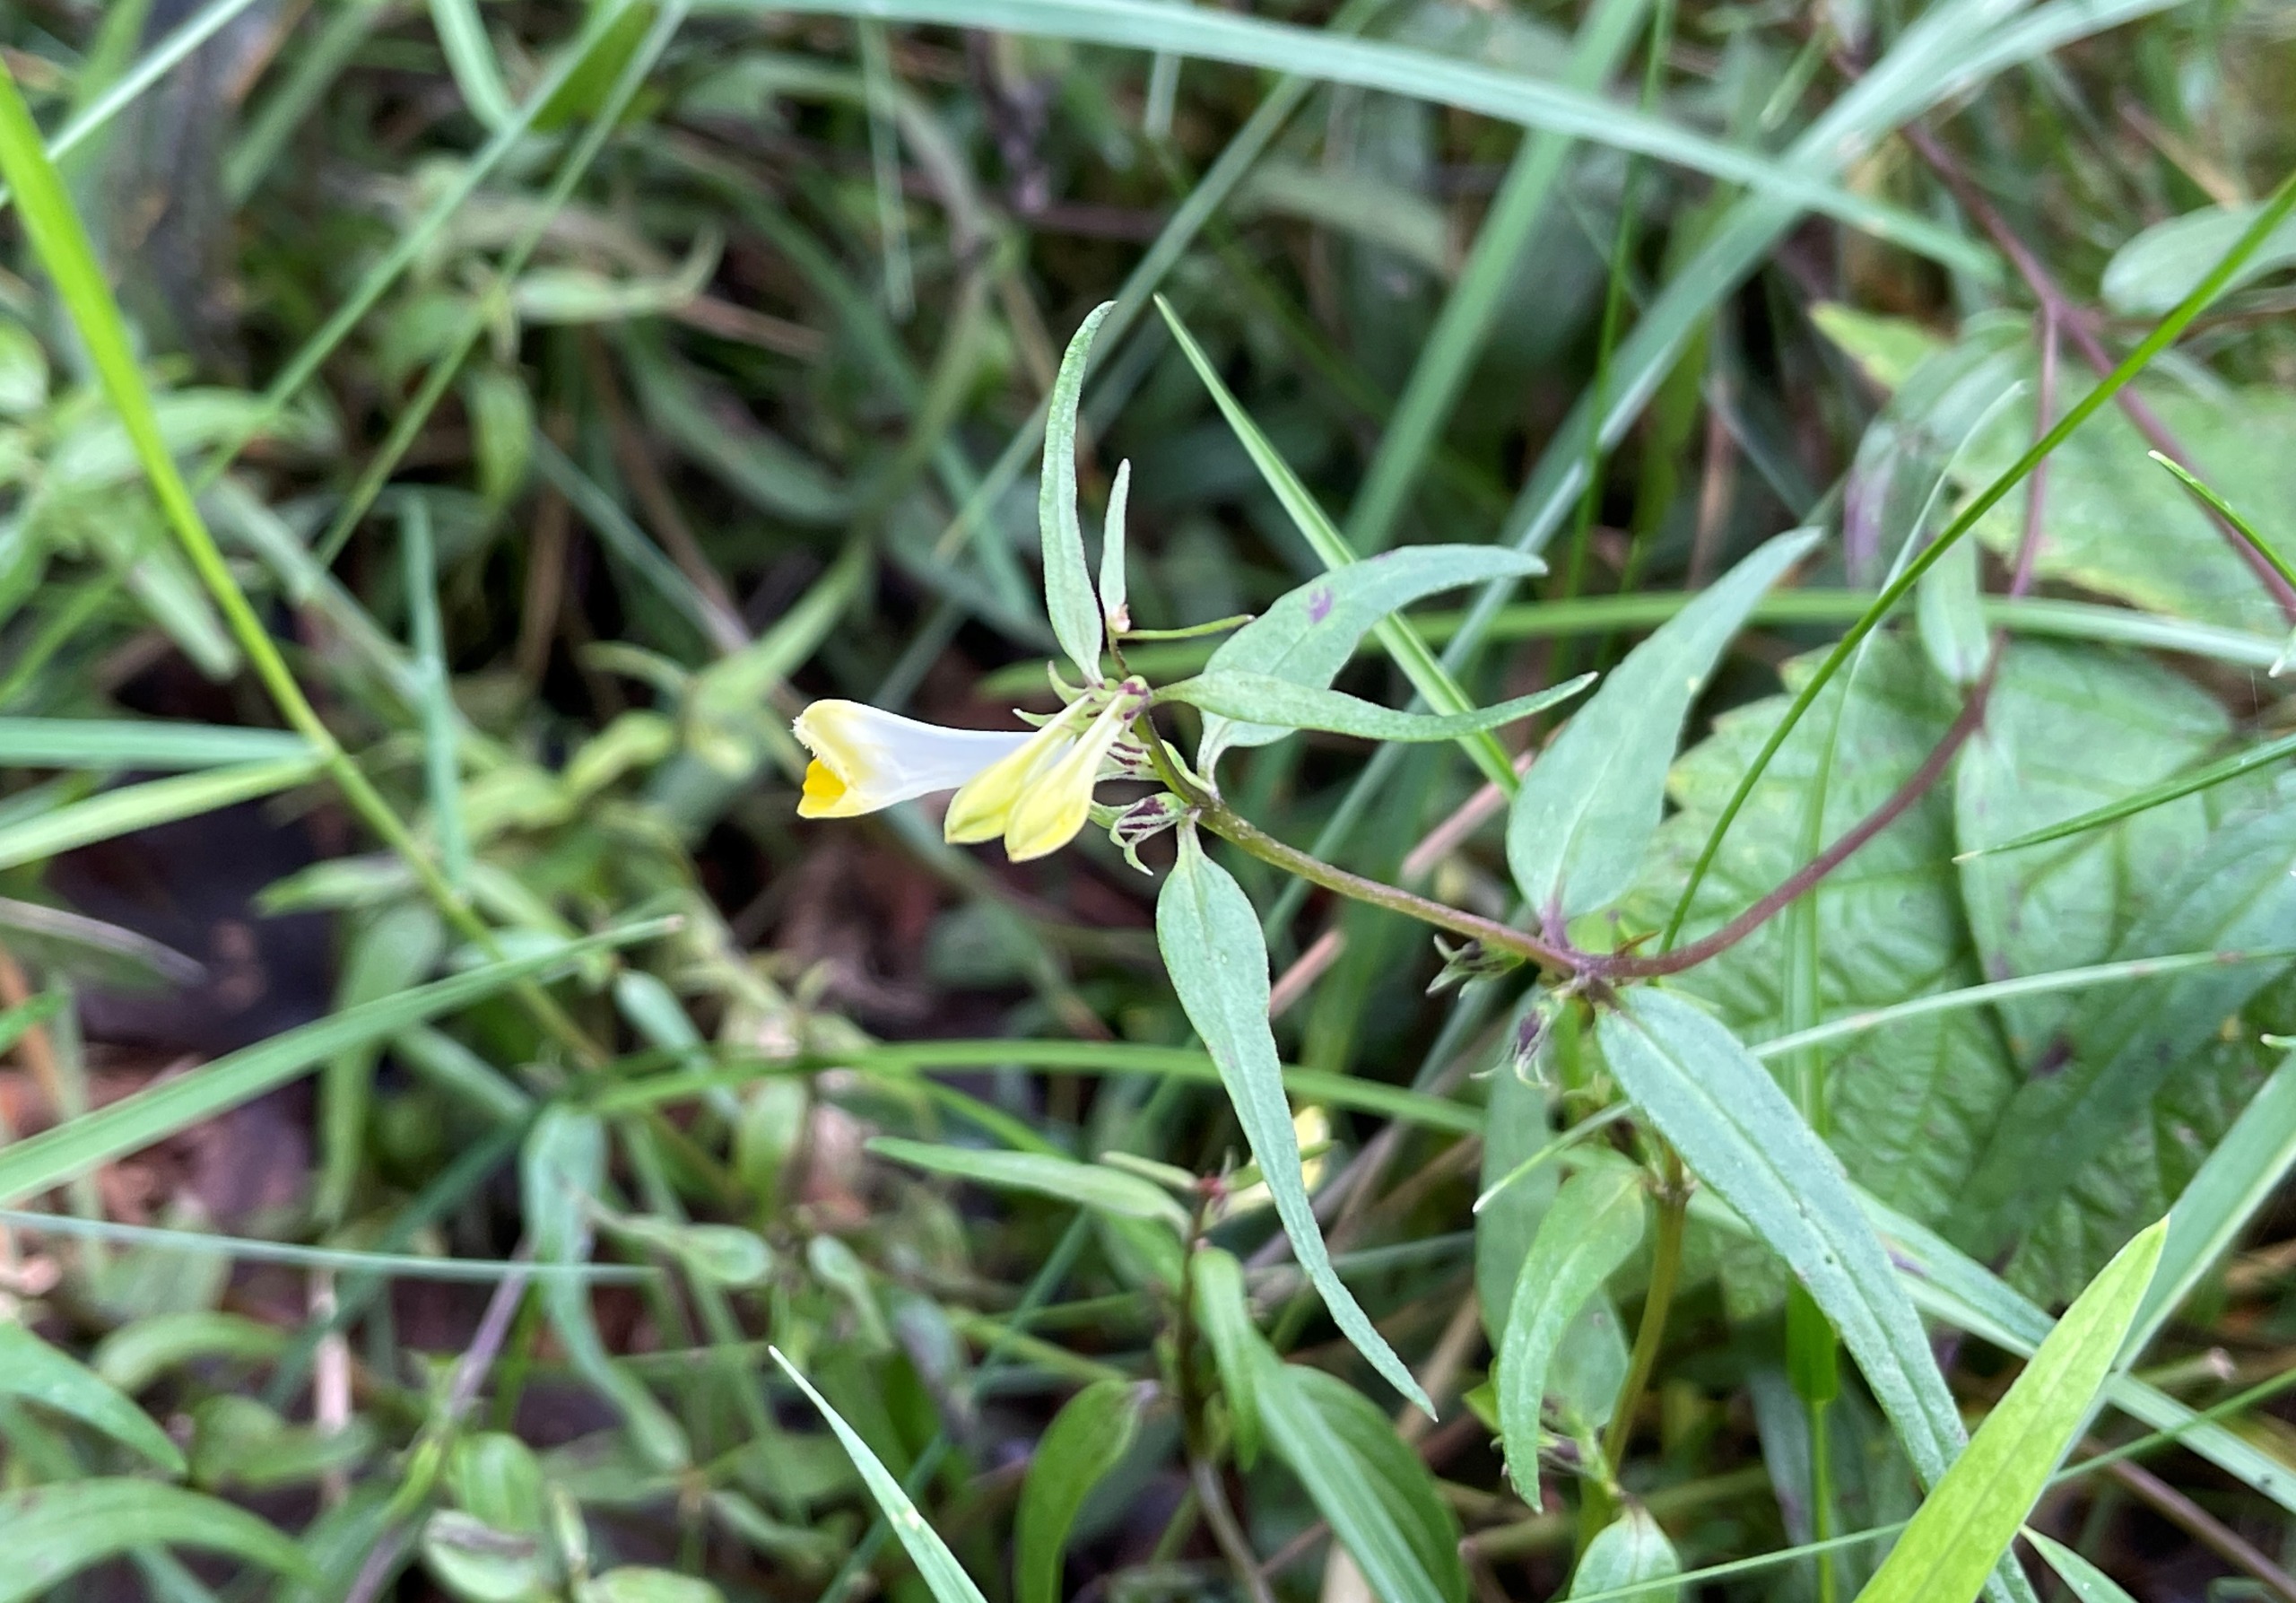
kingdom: Plantae
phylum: Tracheophyta
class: Magnoliopsida
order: Lamiales
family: Orobanchaceae
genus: Melampyrum
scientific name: Melampyrum pratense
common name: Almindelig kohvede
